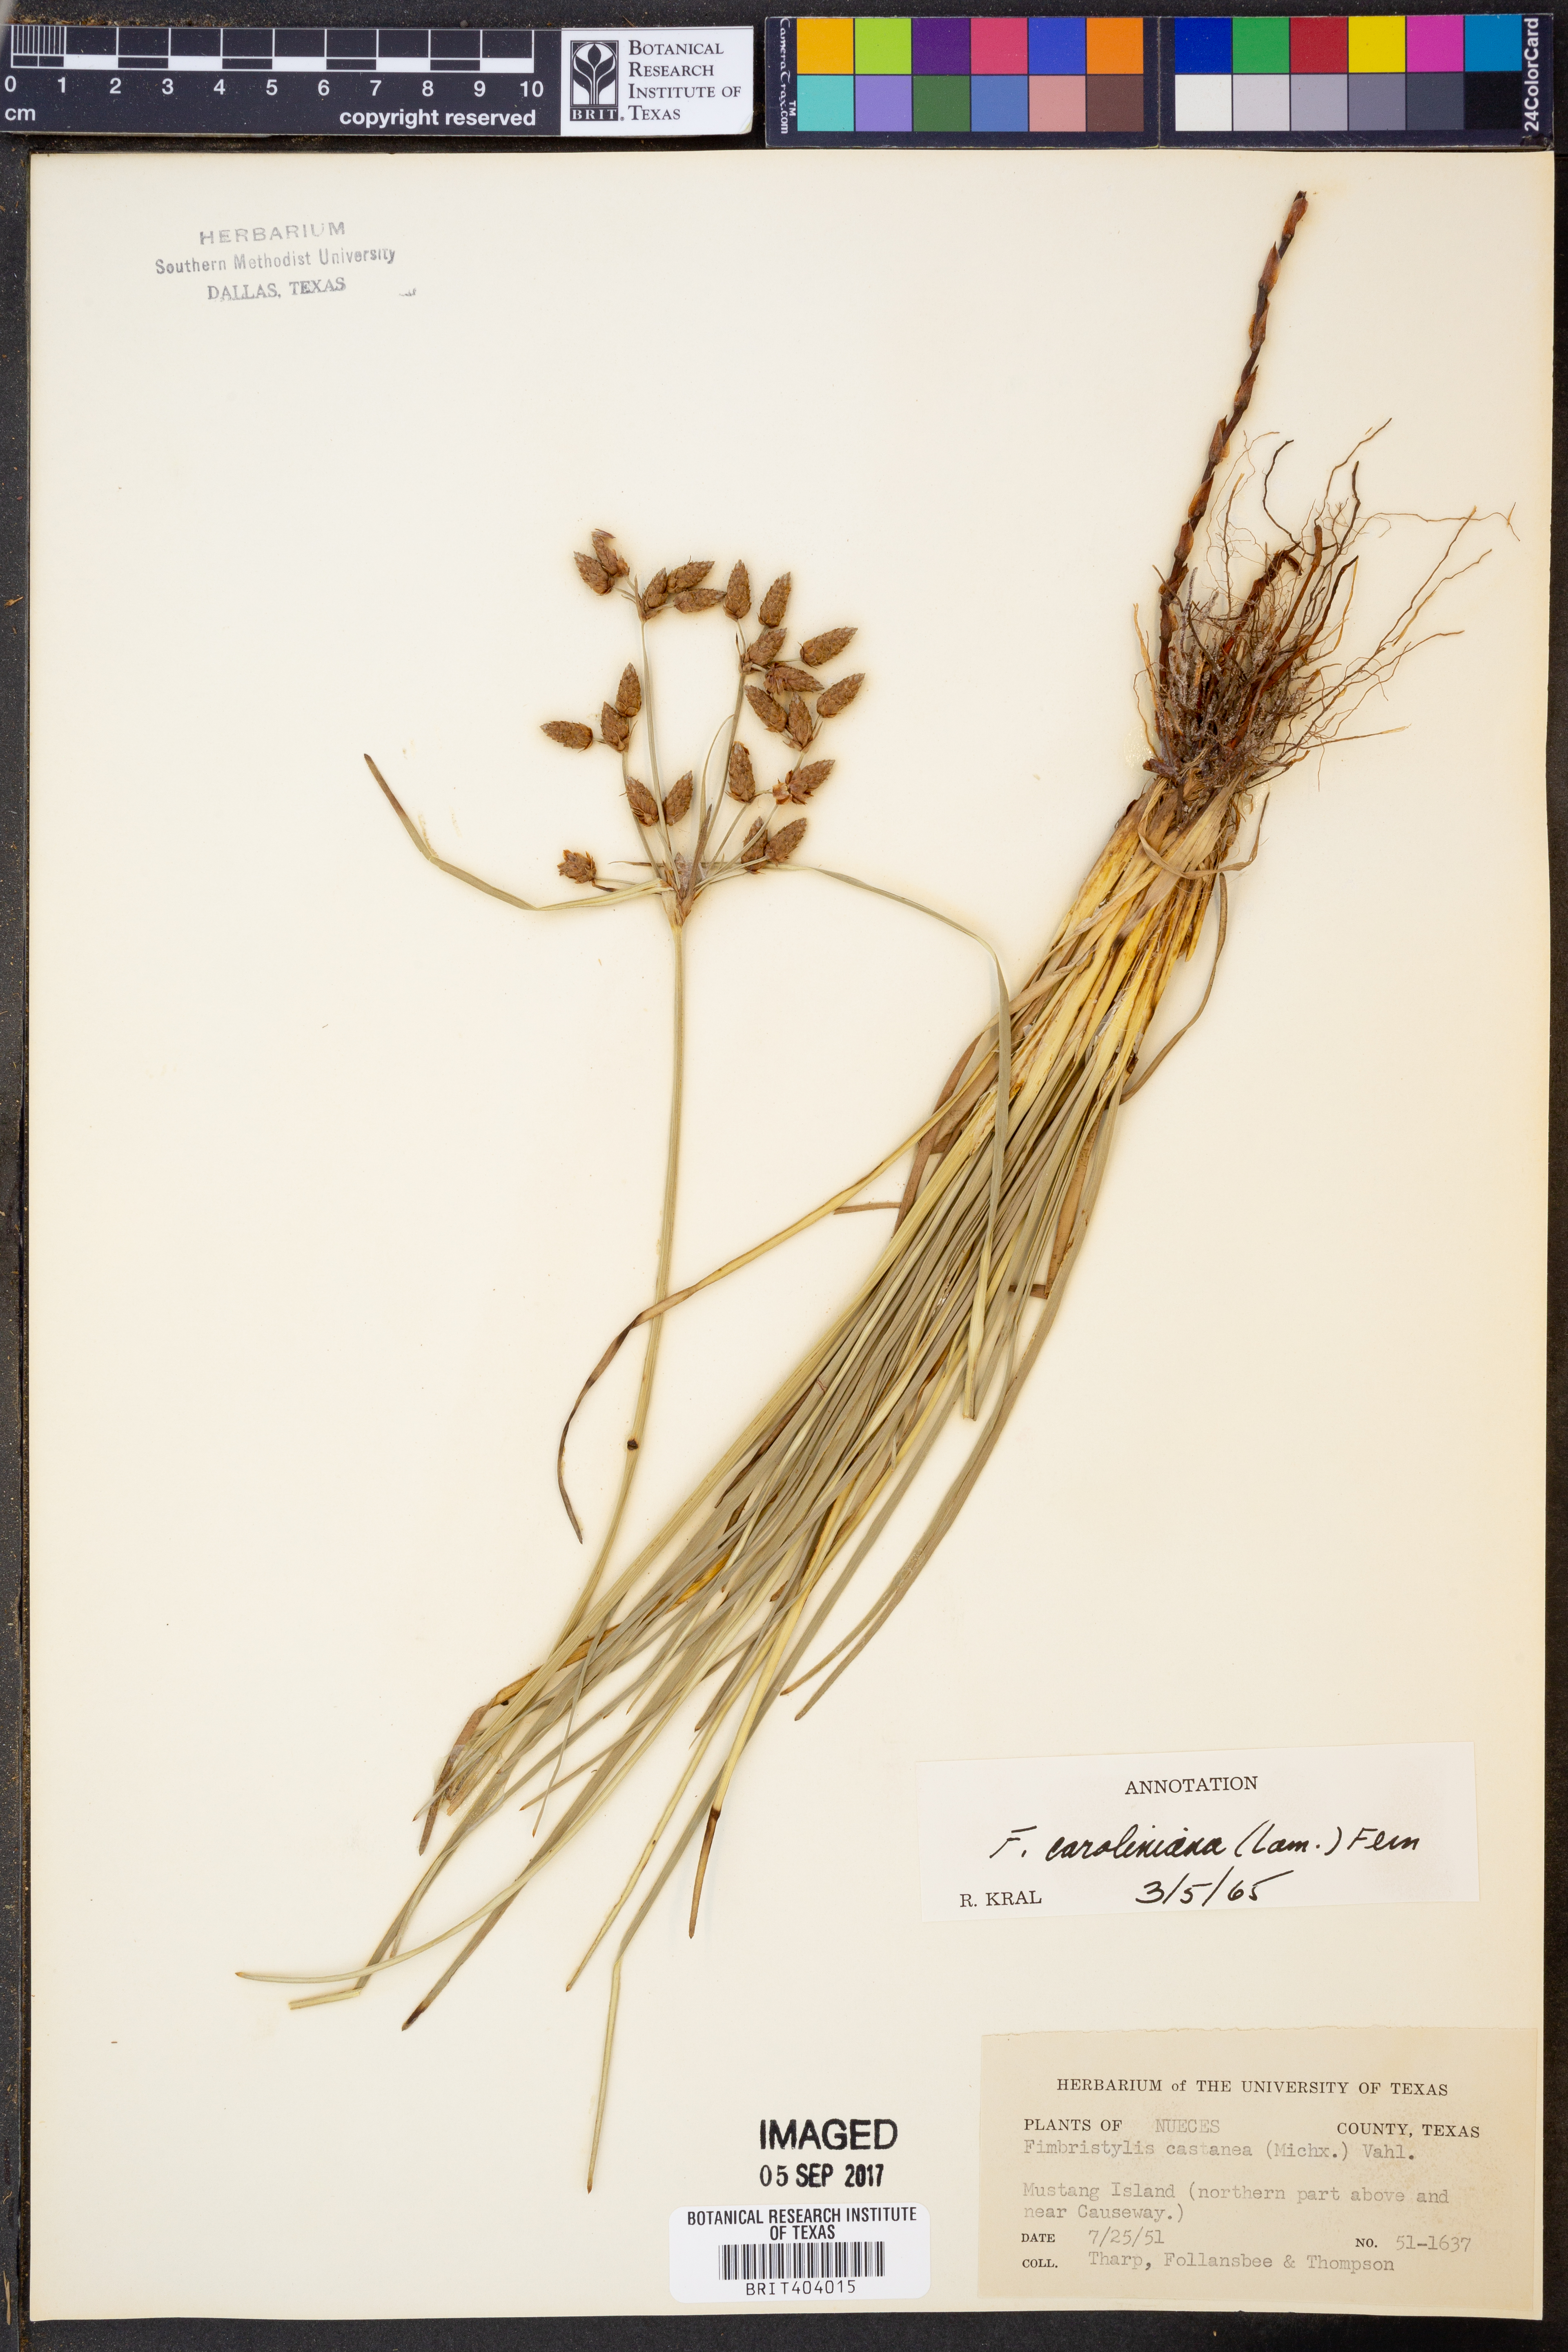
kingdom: Plantae
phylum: Tracheophyta
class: Liliopsida
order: Poales
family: Cyperaceae
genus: Fimbristylis
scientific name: Fimbristylis caroliniana
